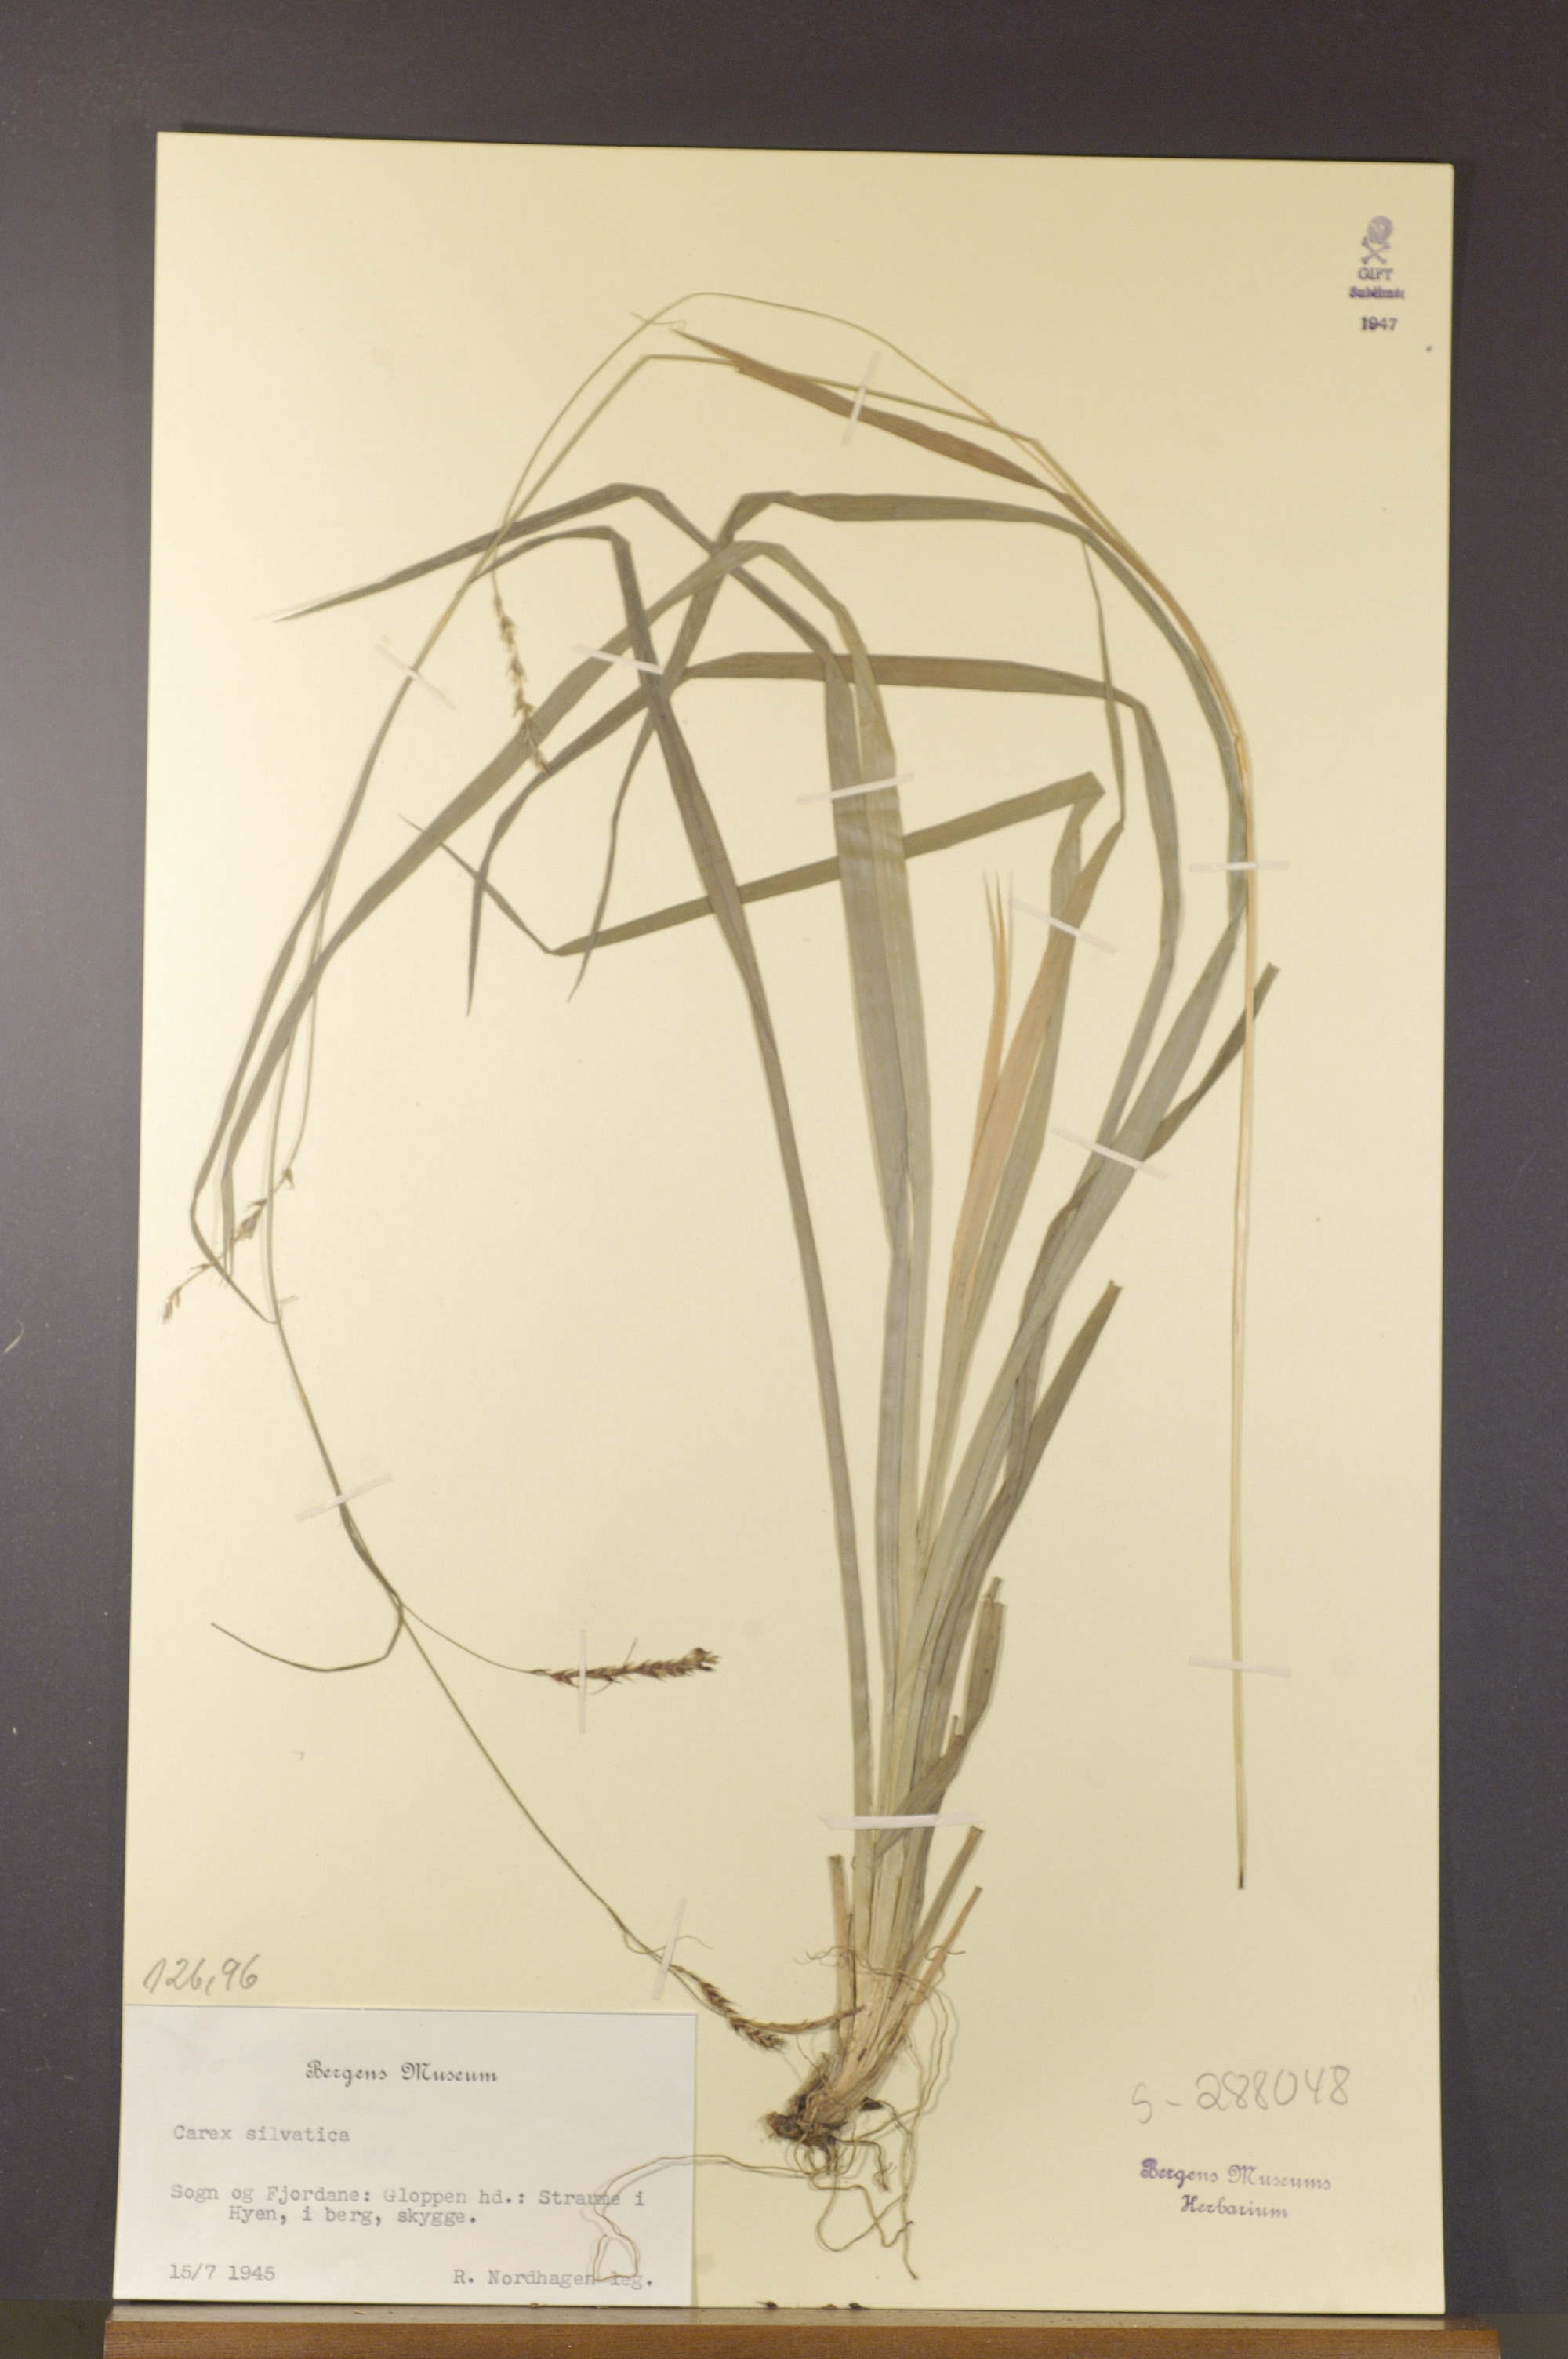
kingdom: Plantae
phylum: Tracheophyta
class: Liliopsida
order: Poales
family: Cyperaceae
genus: Carex
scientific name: Carex sylvatica
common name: Wood-sedge
